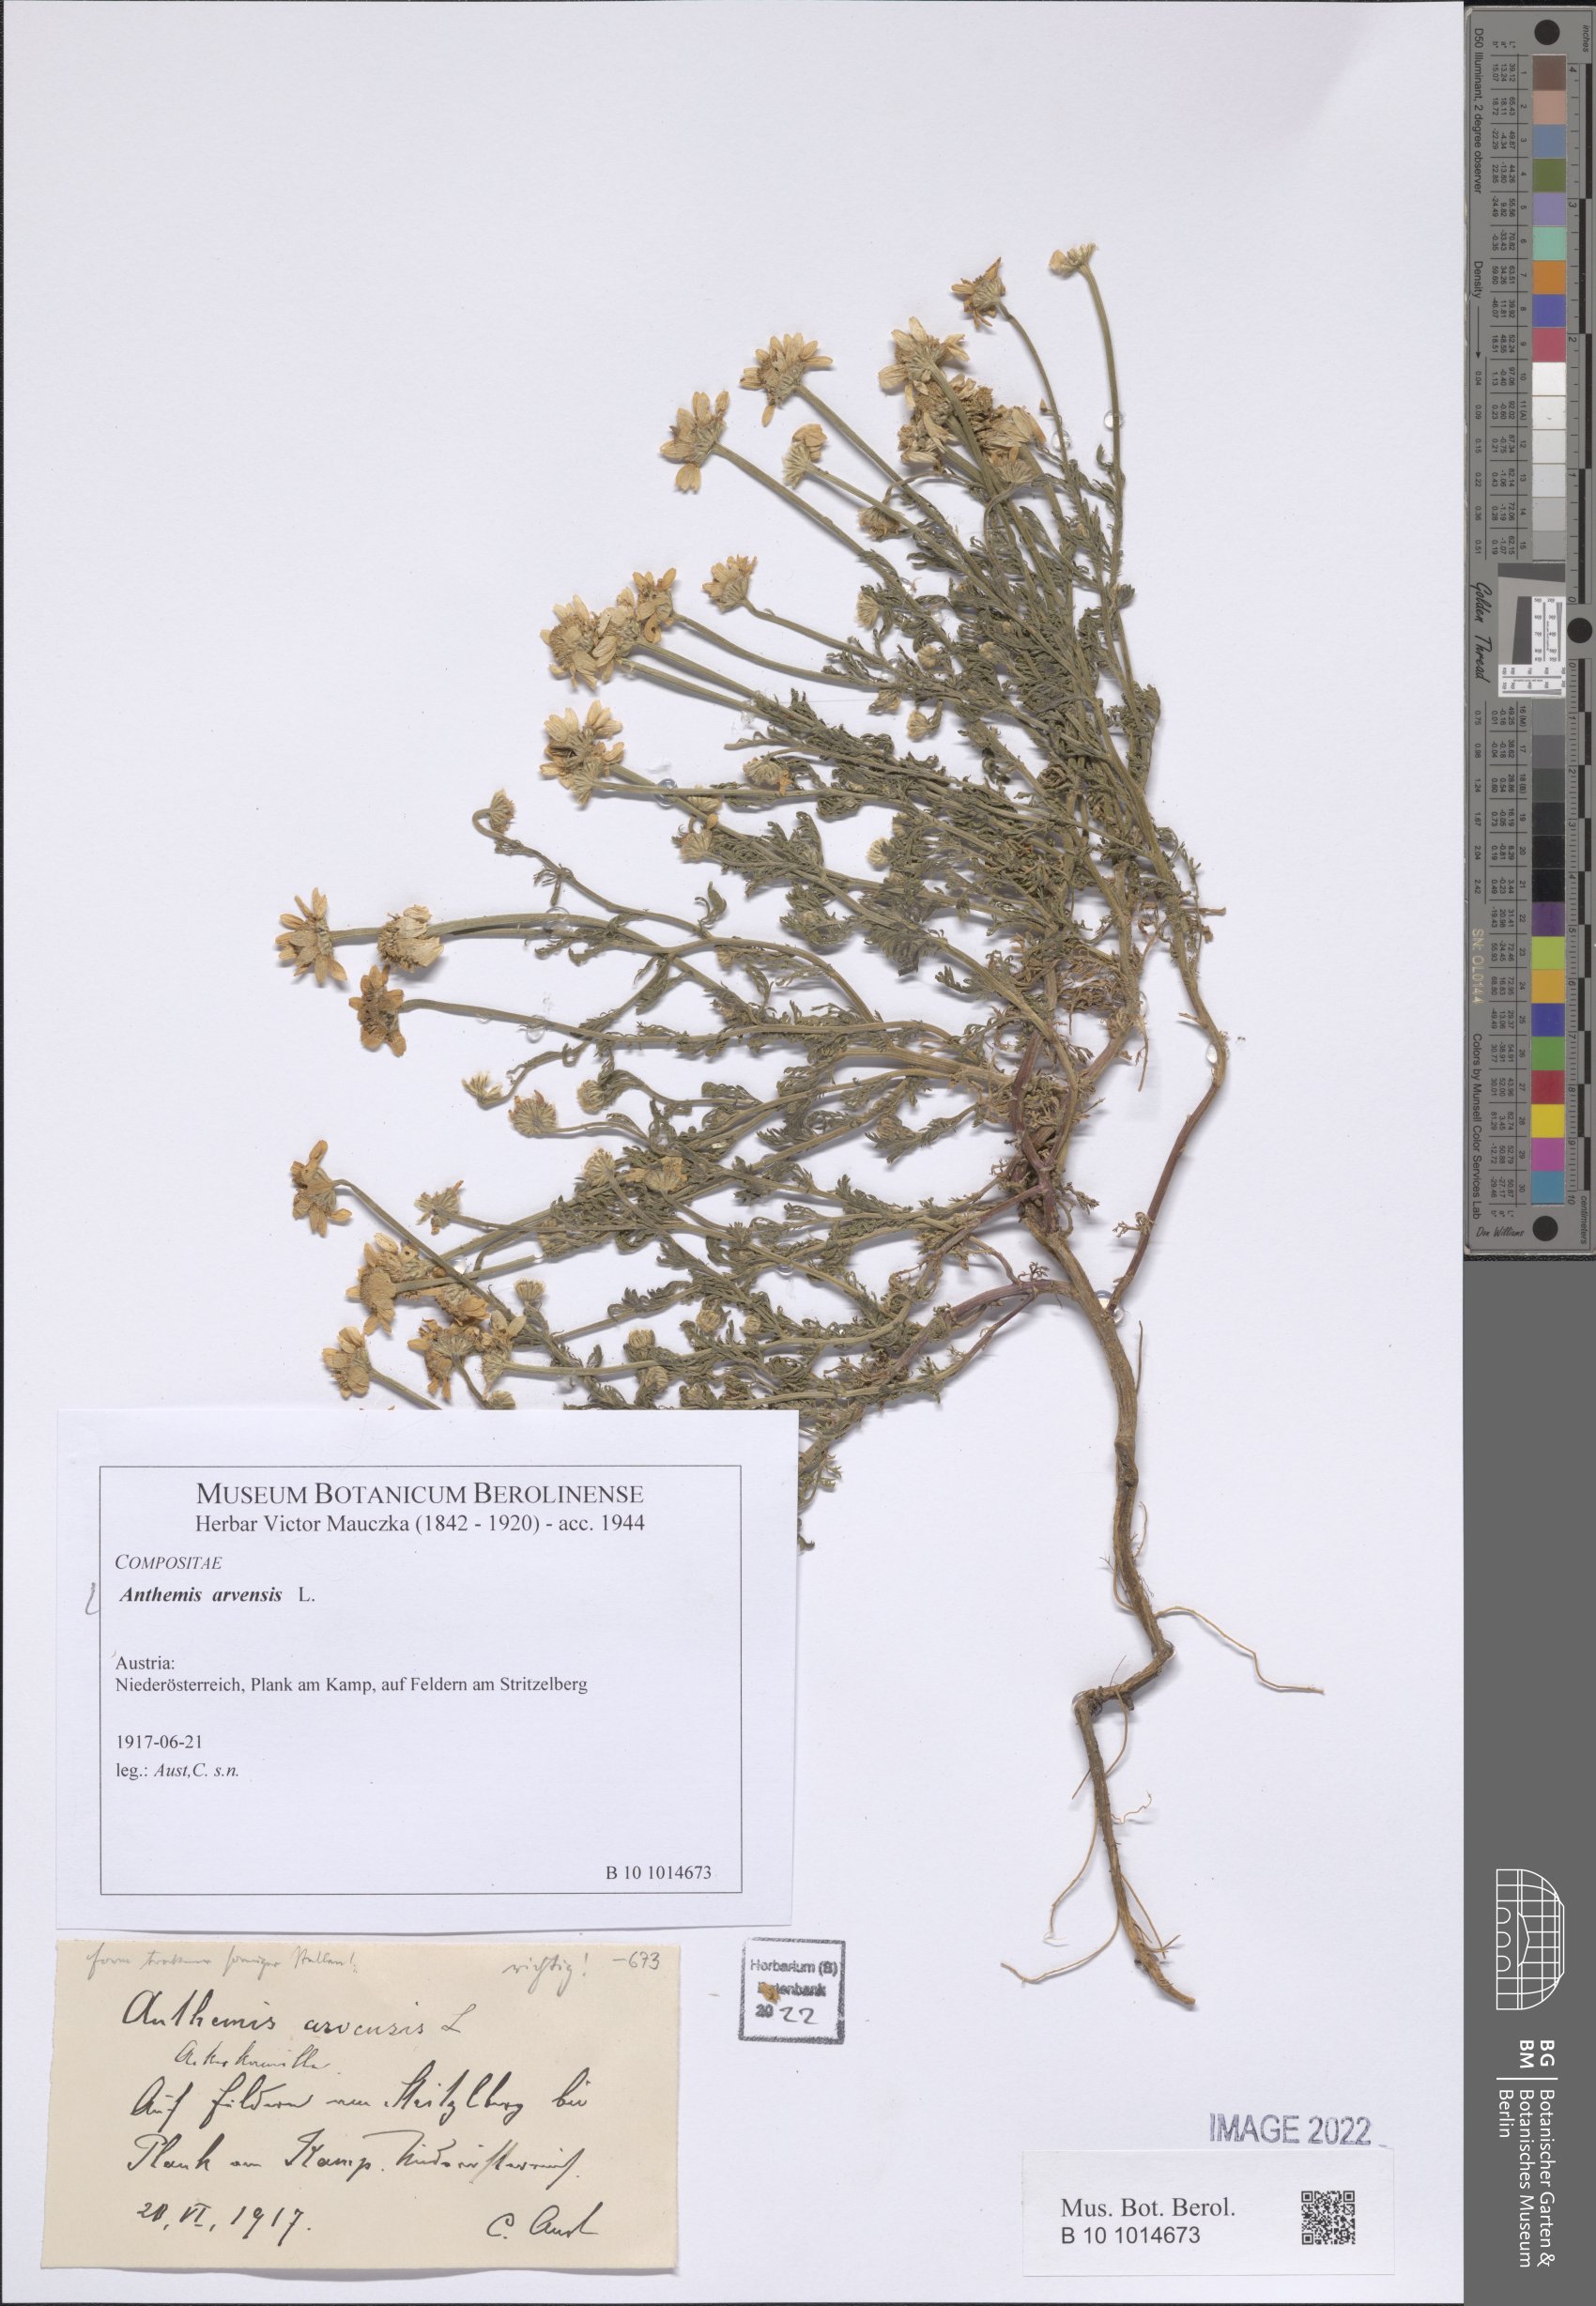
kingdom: Plantae
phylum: Tracheophyta
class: Magnoliopsida
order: Asterales
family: Asteraceae
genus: Anthemis
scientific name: Anthemis arvensis
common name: Corn chamomile
